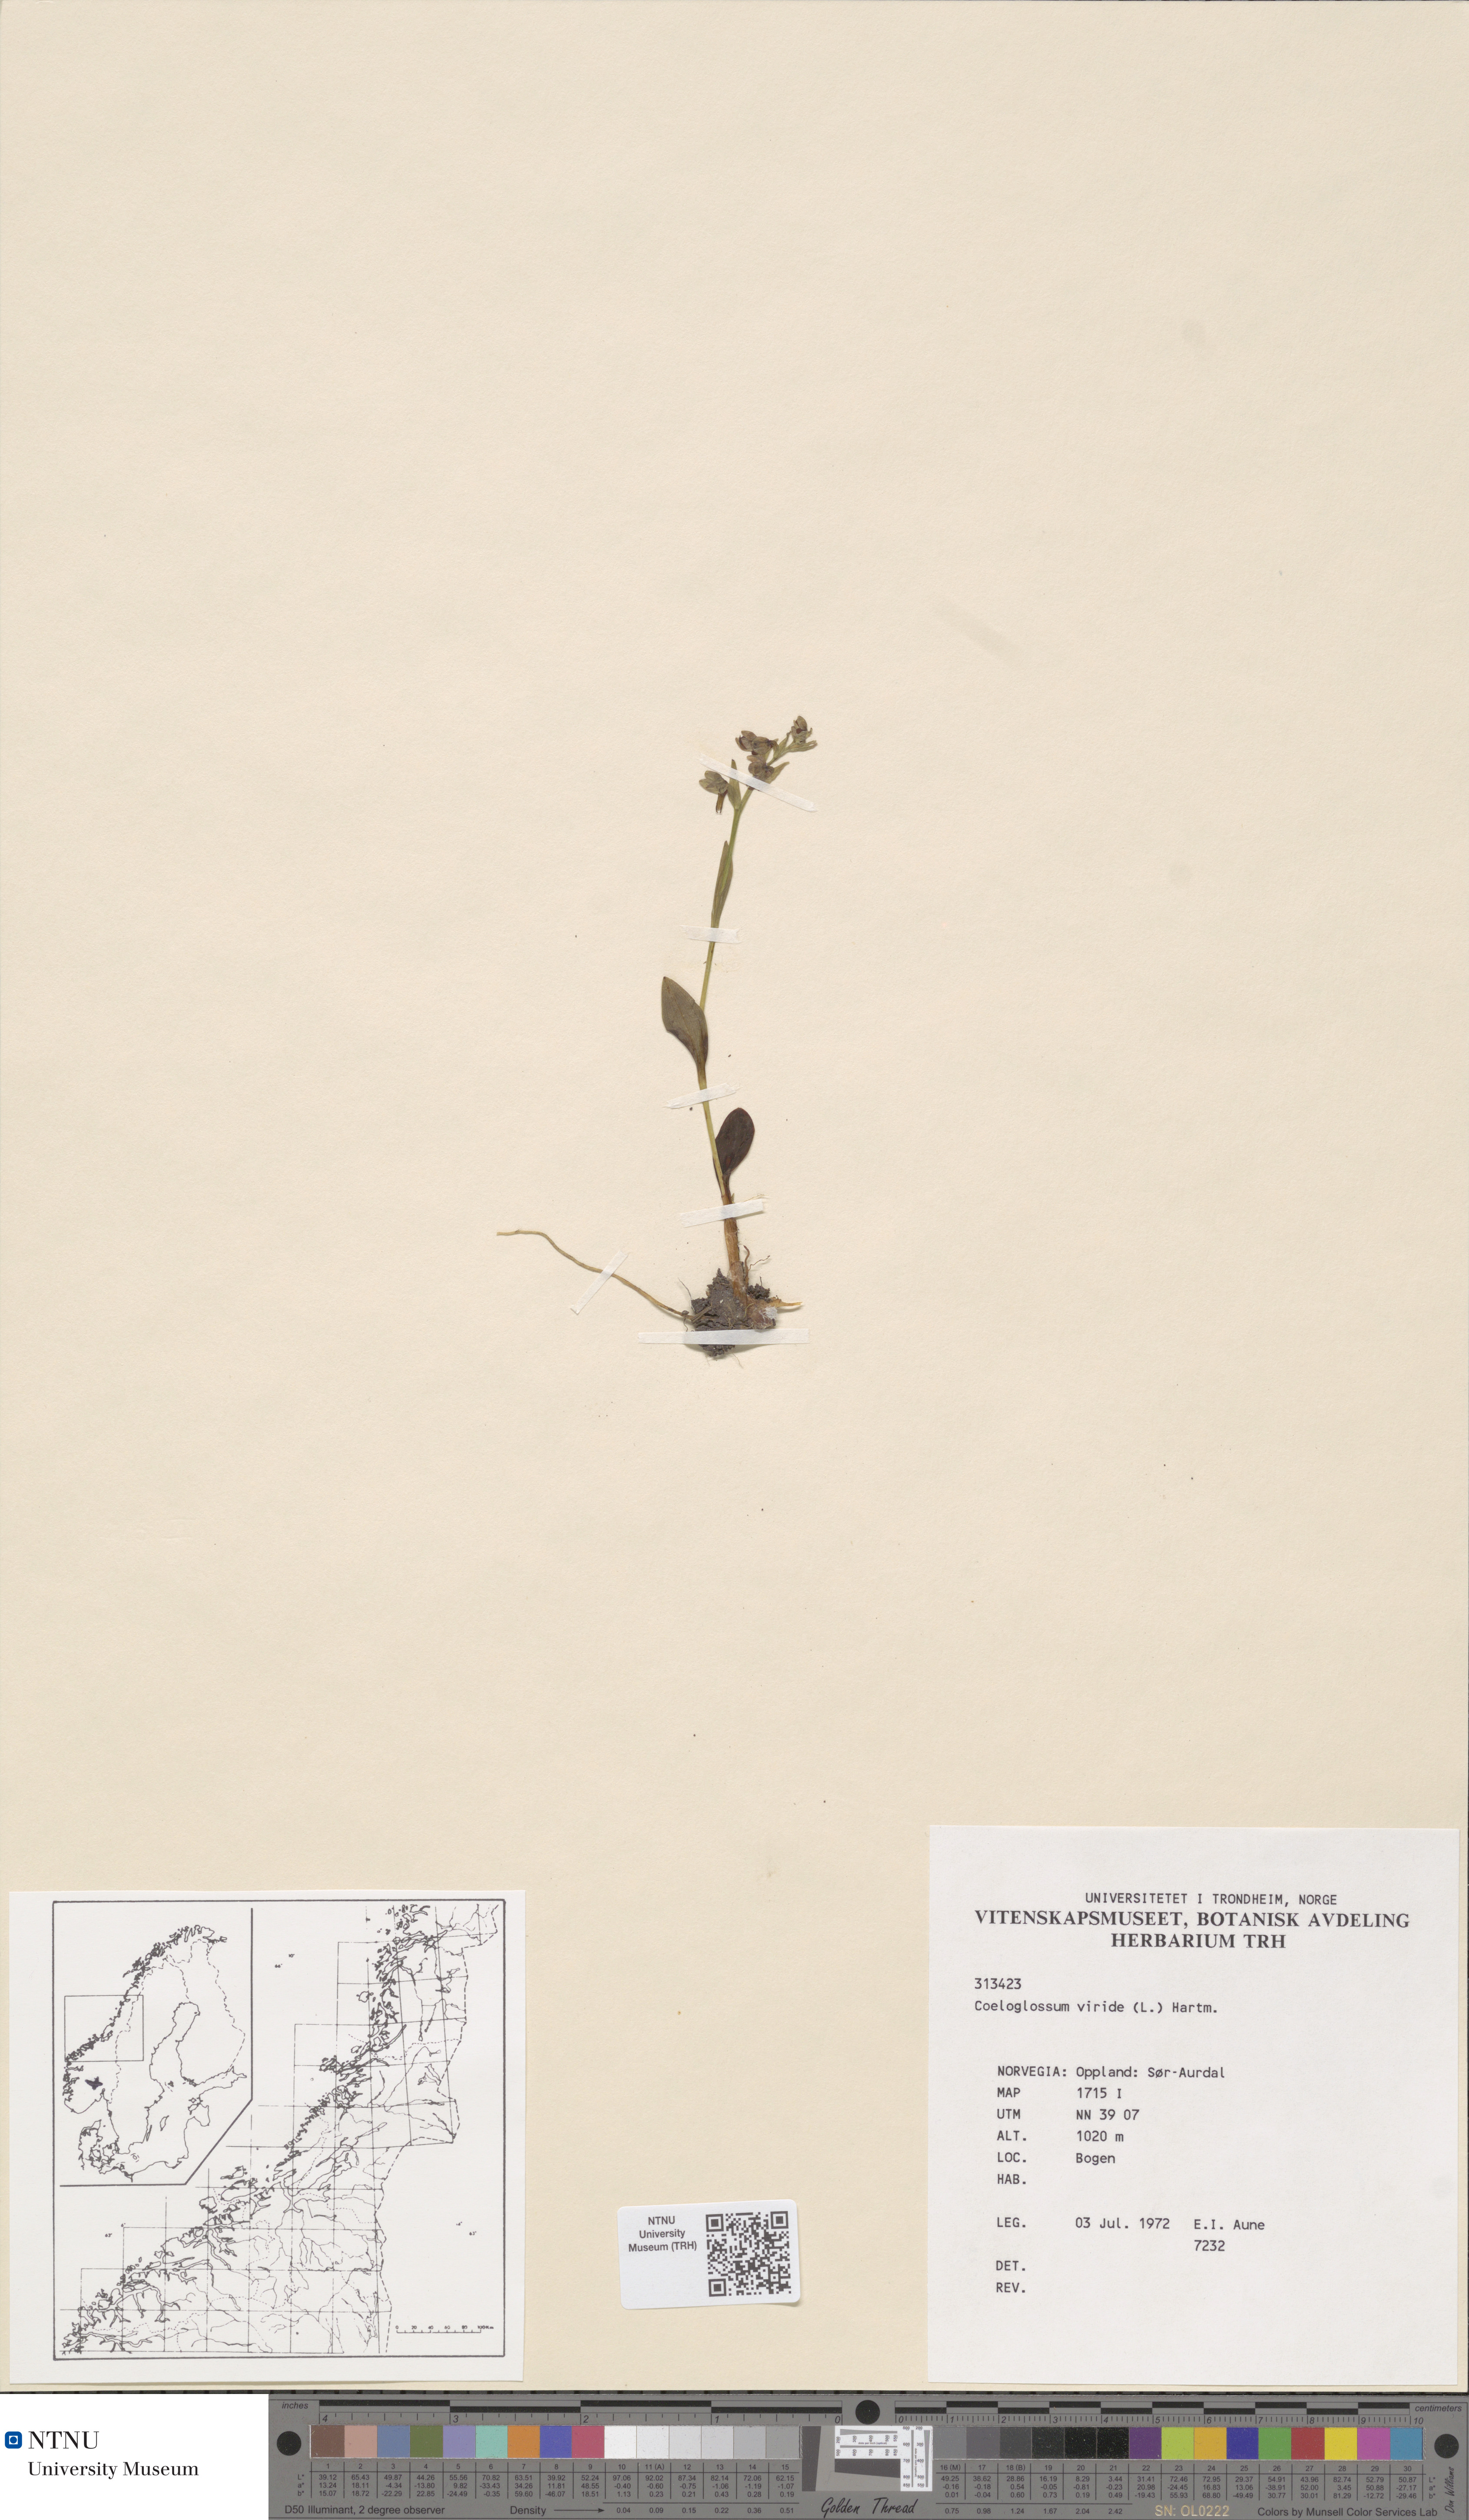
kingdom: Plantae
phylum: Tracheophyta
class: Liliopsida
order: Asparagales
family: Orchidaceae
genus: Dactylorhiza
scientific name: Dactylorhiza viridis
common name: Longbract frog orchid
